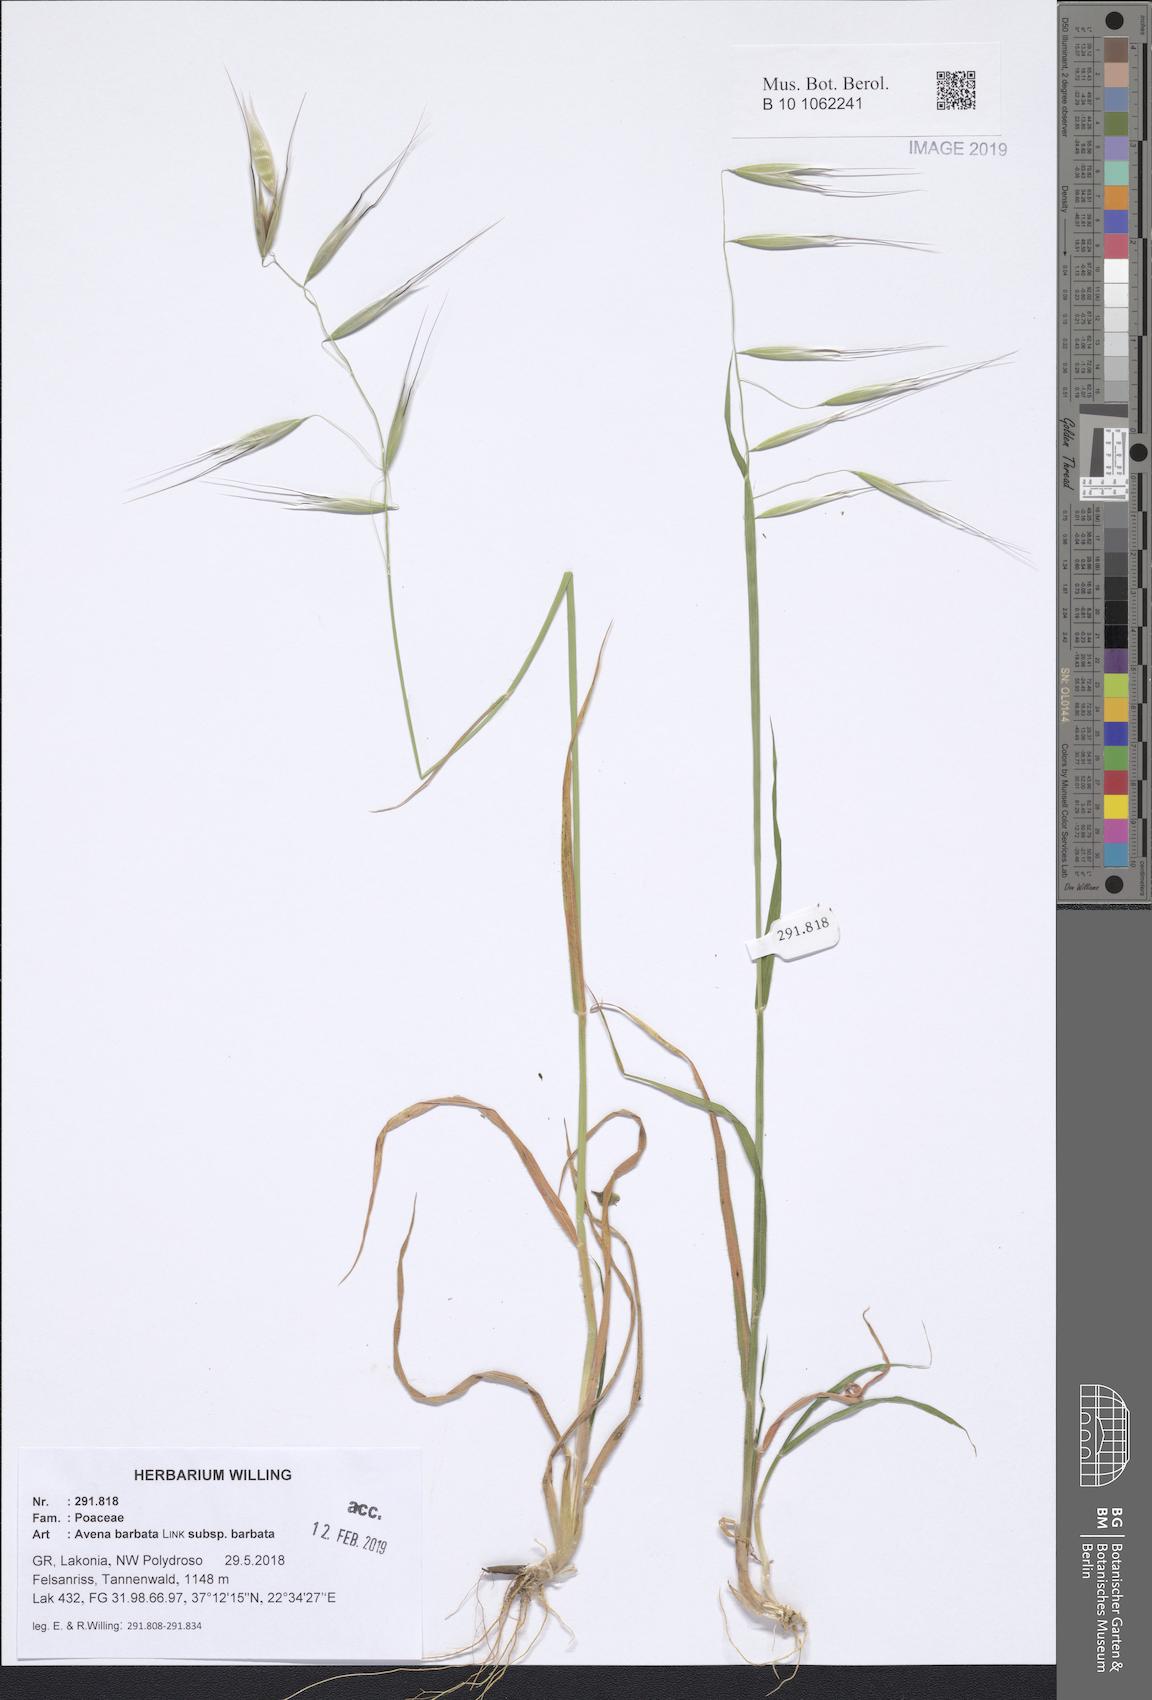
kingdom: Plantae
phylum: Tracheophyta
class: Liliopsida
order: Poales
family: Poaceae
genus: Avena
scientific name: Avena barbata
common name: Slender oat
